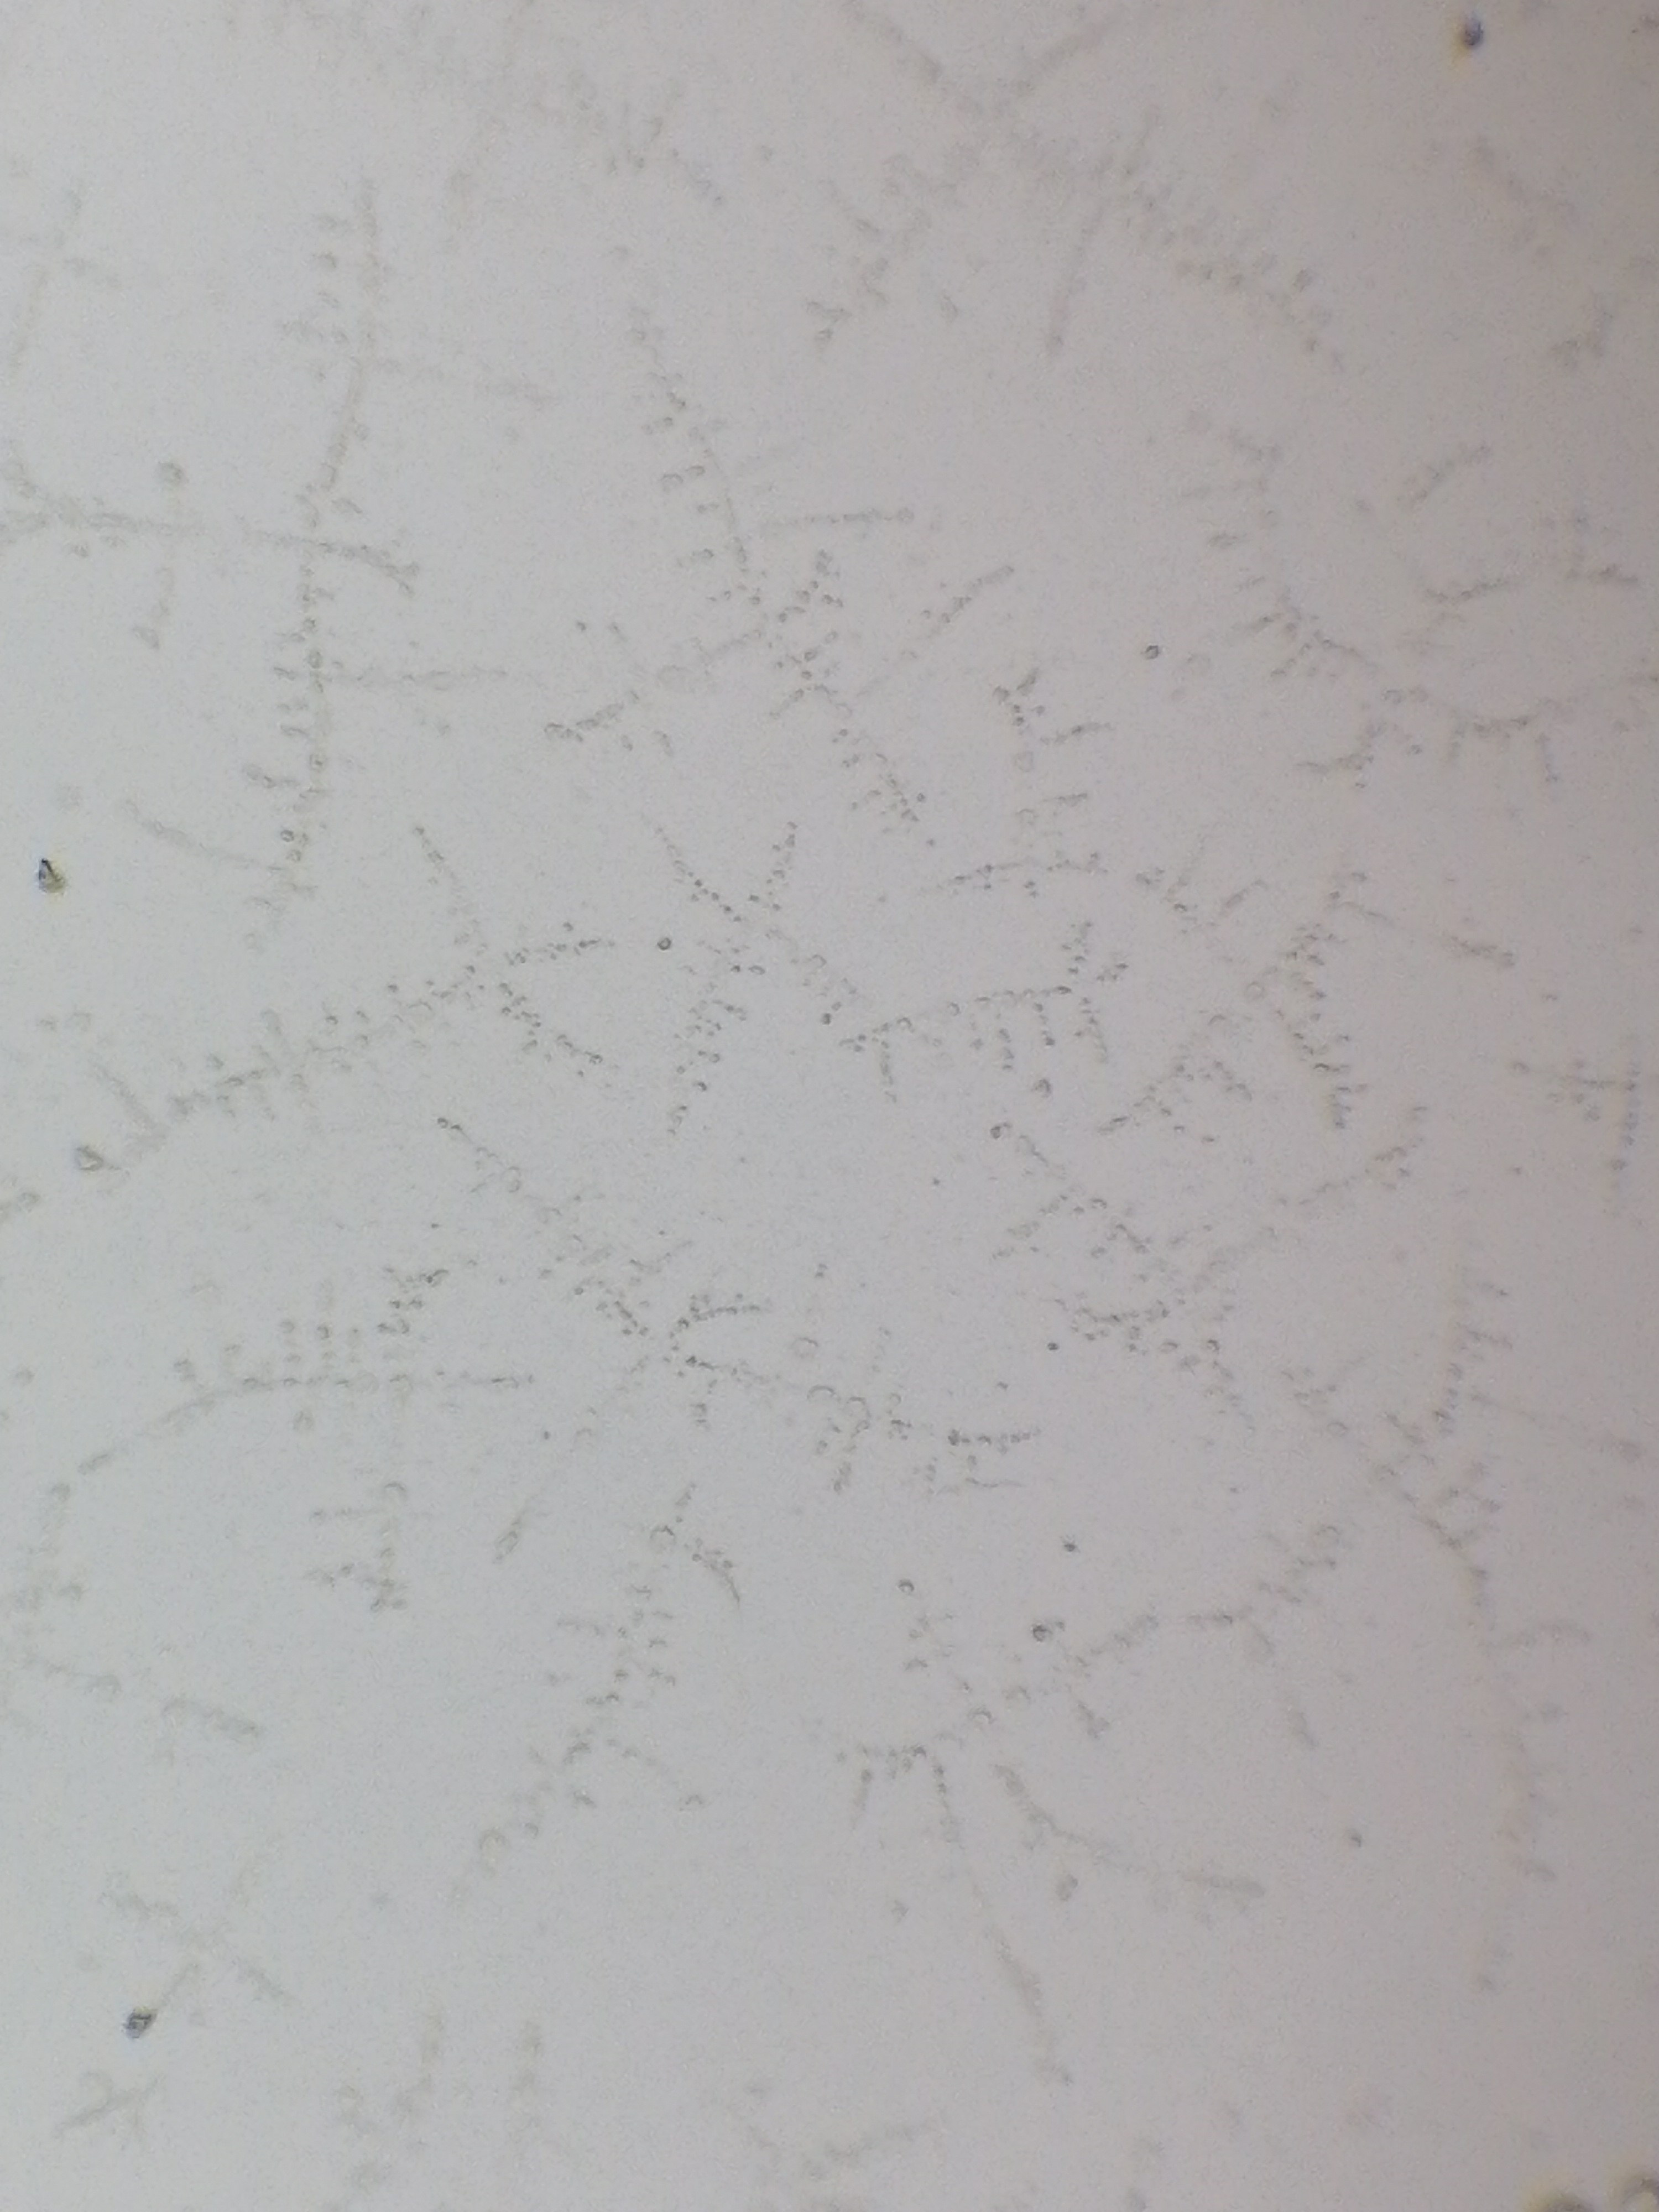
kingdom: Fungi
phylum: Ascomycota
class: Leotiomycetes
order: Helotiales
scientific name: Helotiales
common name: stilkskiveordenen
